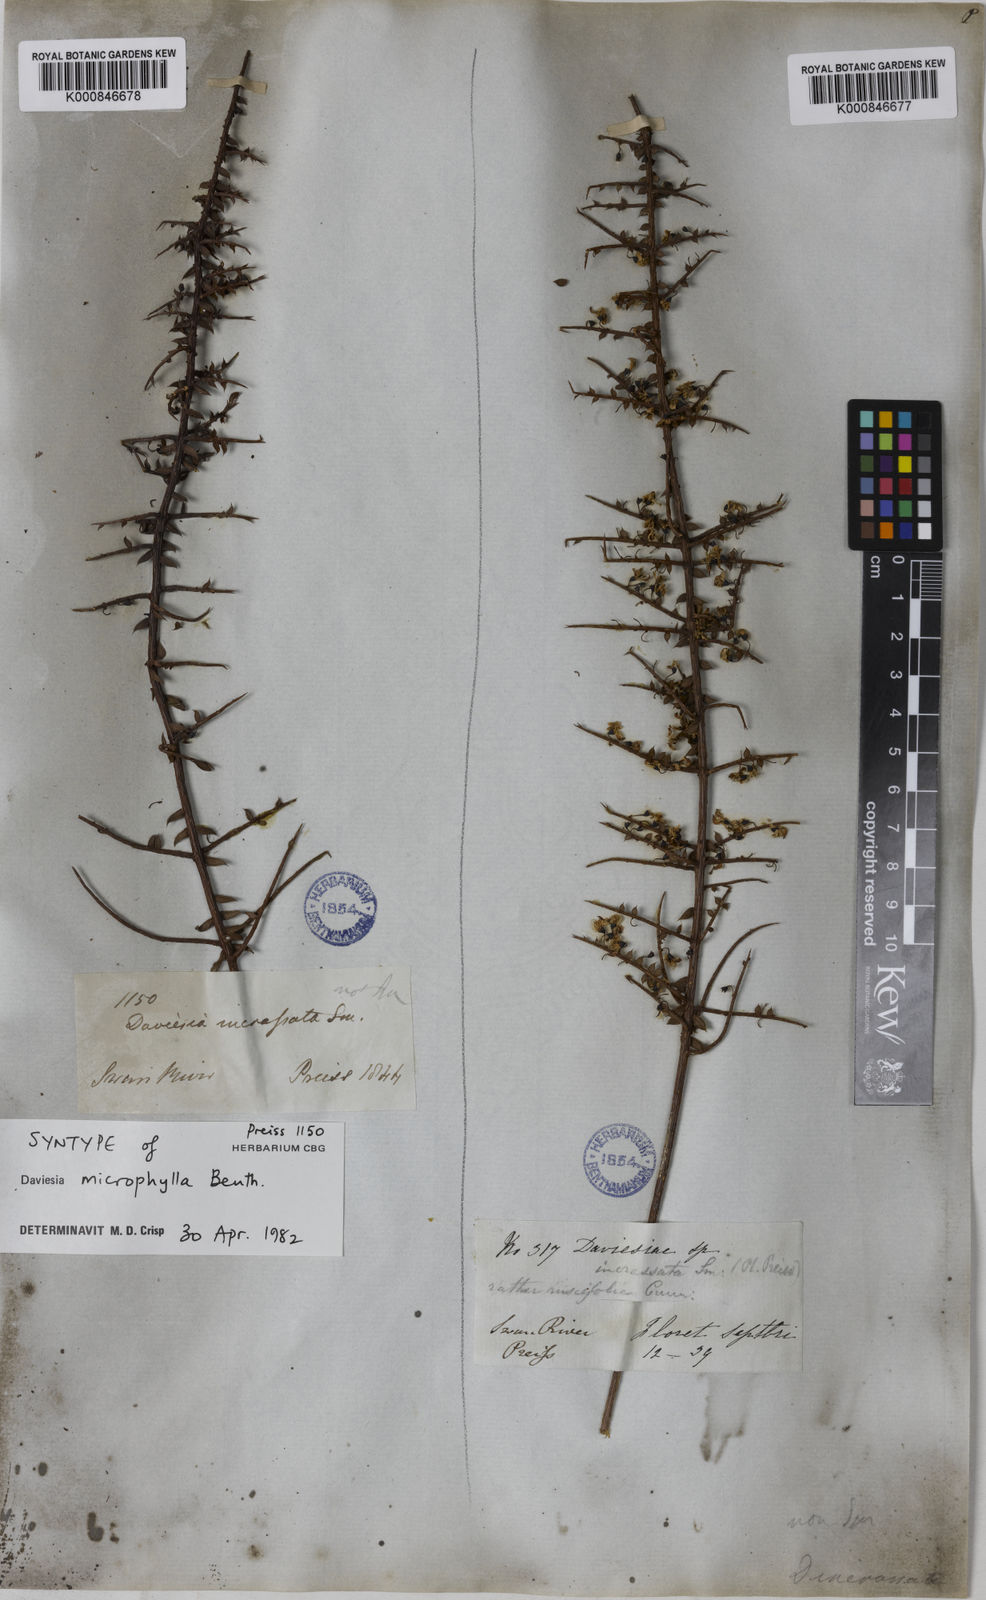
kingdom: Plantae
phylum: Tracheophyta
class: Magnoliopsida
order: Fabales
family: Fabaceae
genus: Daviesia
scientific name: Daviesia microphylla
